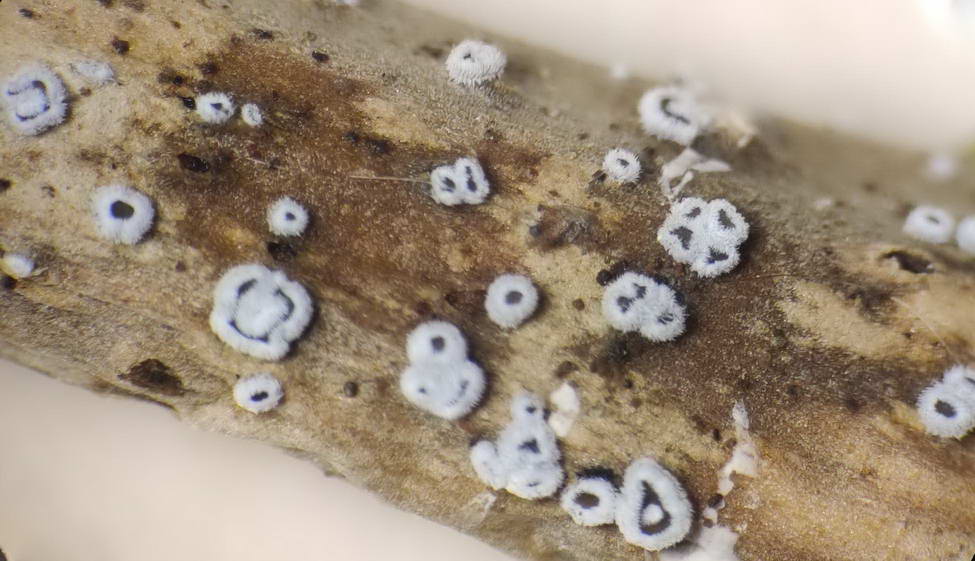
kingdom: Fungi
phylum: Basidiomycota
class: Agaricomycetes
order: Agaricales
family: Niaceae
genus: Lachnella
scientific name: Lachnella alboviolascens
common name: grå frynserede
